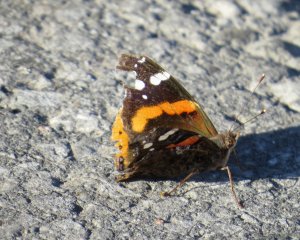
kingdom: Animalia
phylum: Arthropoda
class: Insecta
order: Lepidoptera
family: Nymphalidae
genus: Vanessa
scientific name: Vanessa atalanta
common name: Red Admiral
